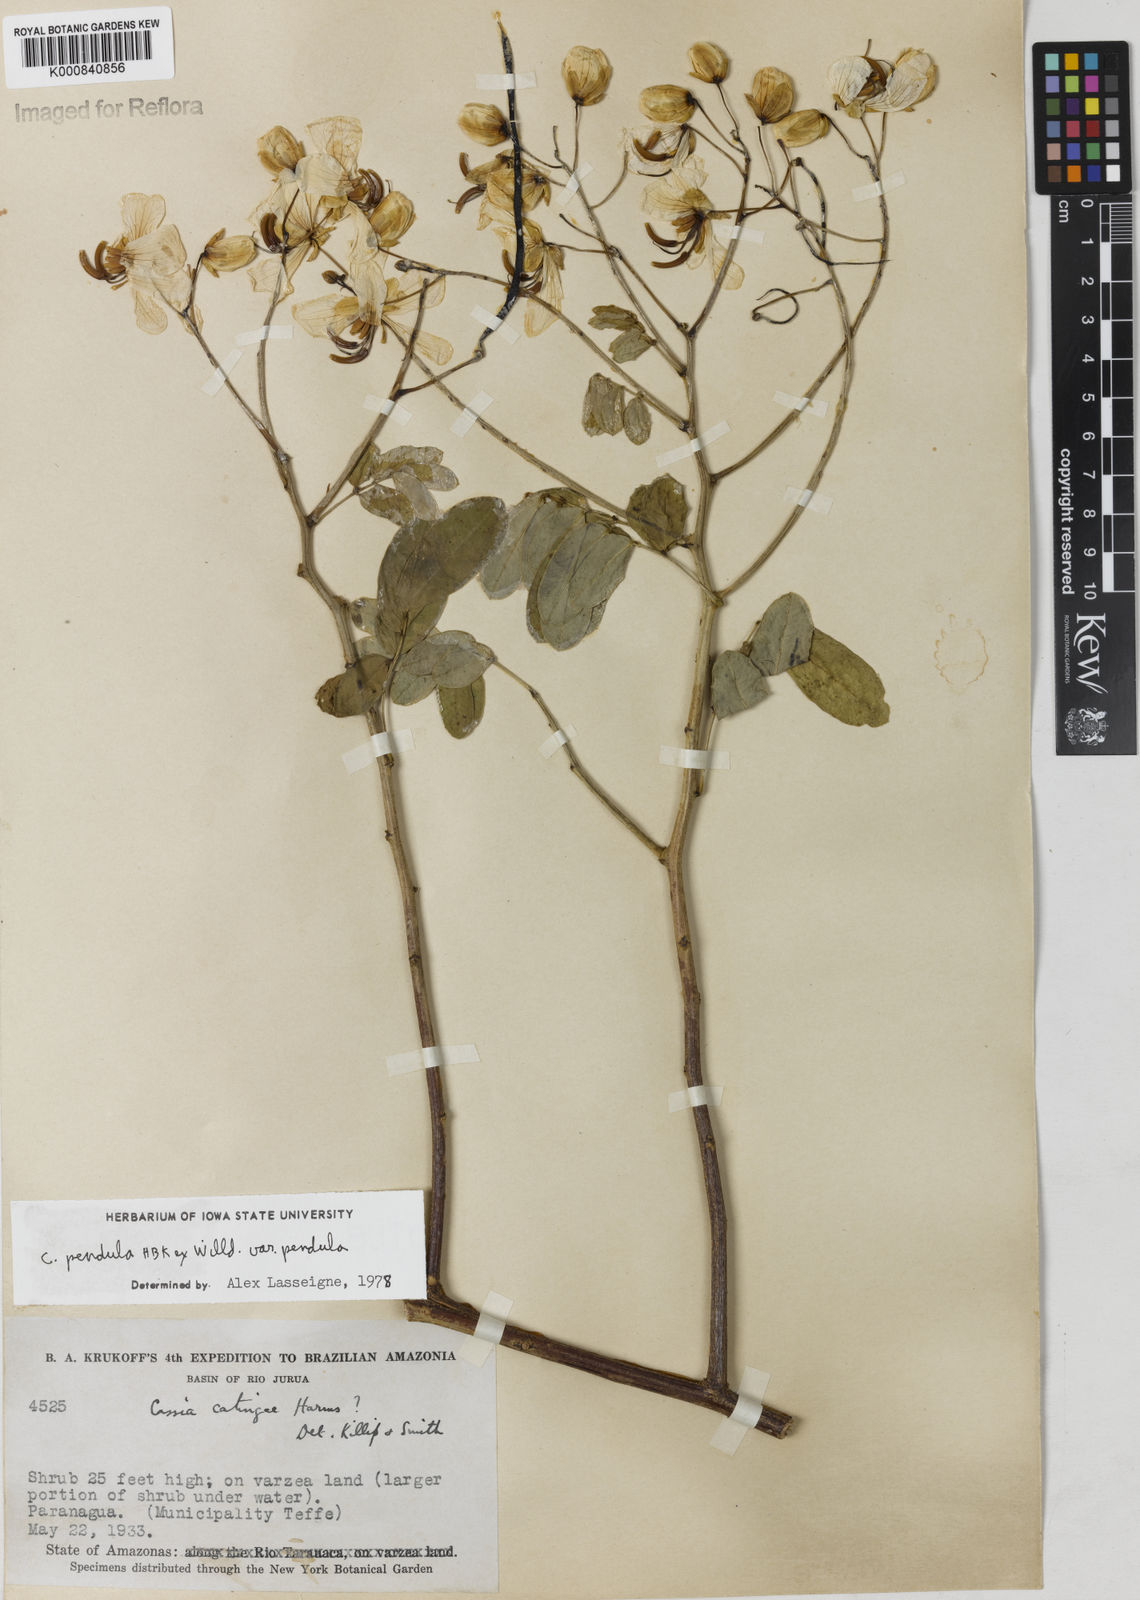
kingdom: Plantae
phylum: Tracheophyta
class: Magnoliopsida
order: Fabales
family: Fabaceae
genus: Senna
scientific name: Senna pendula
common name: Easter cassia
